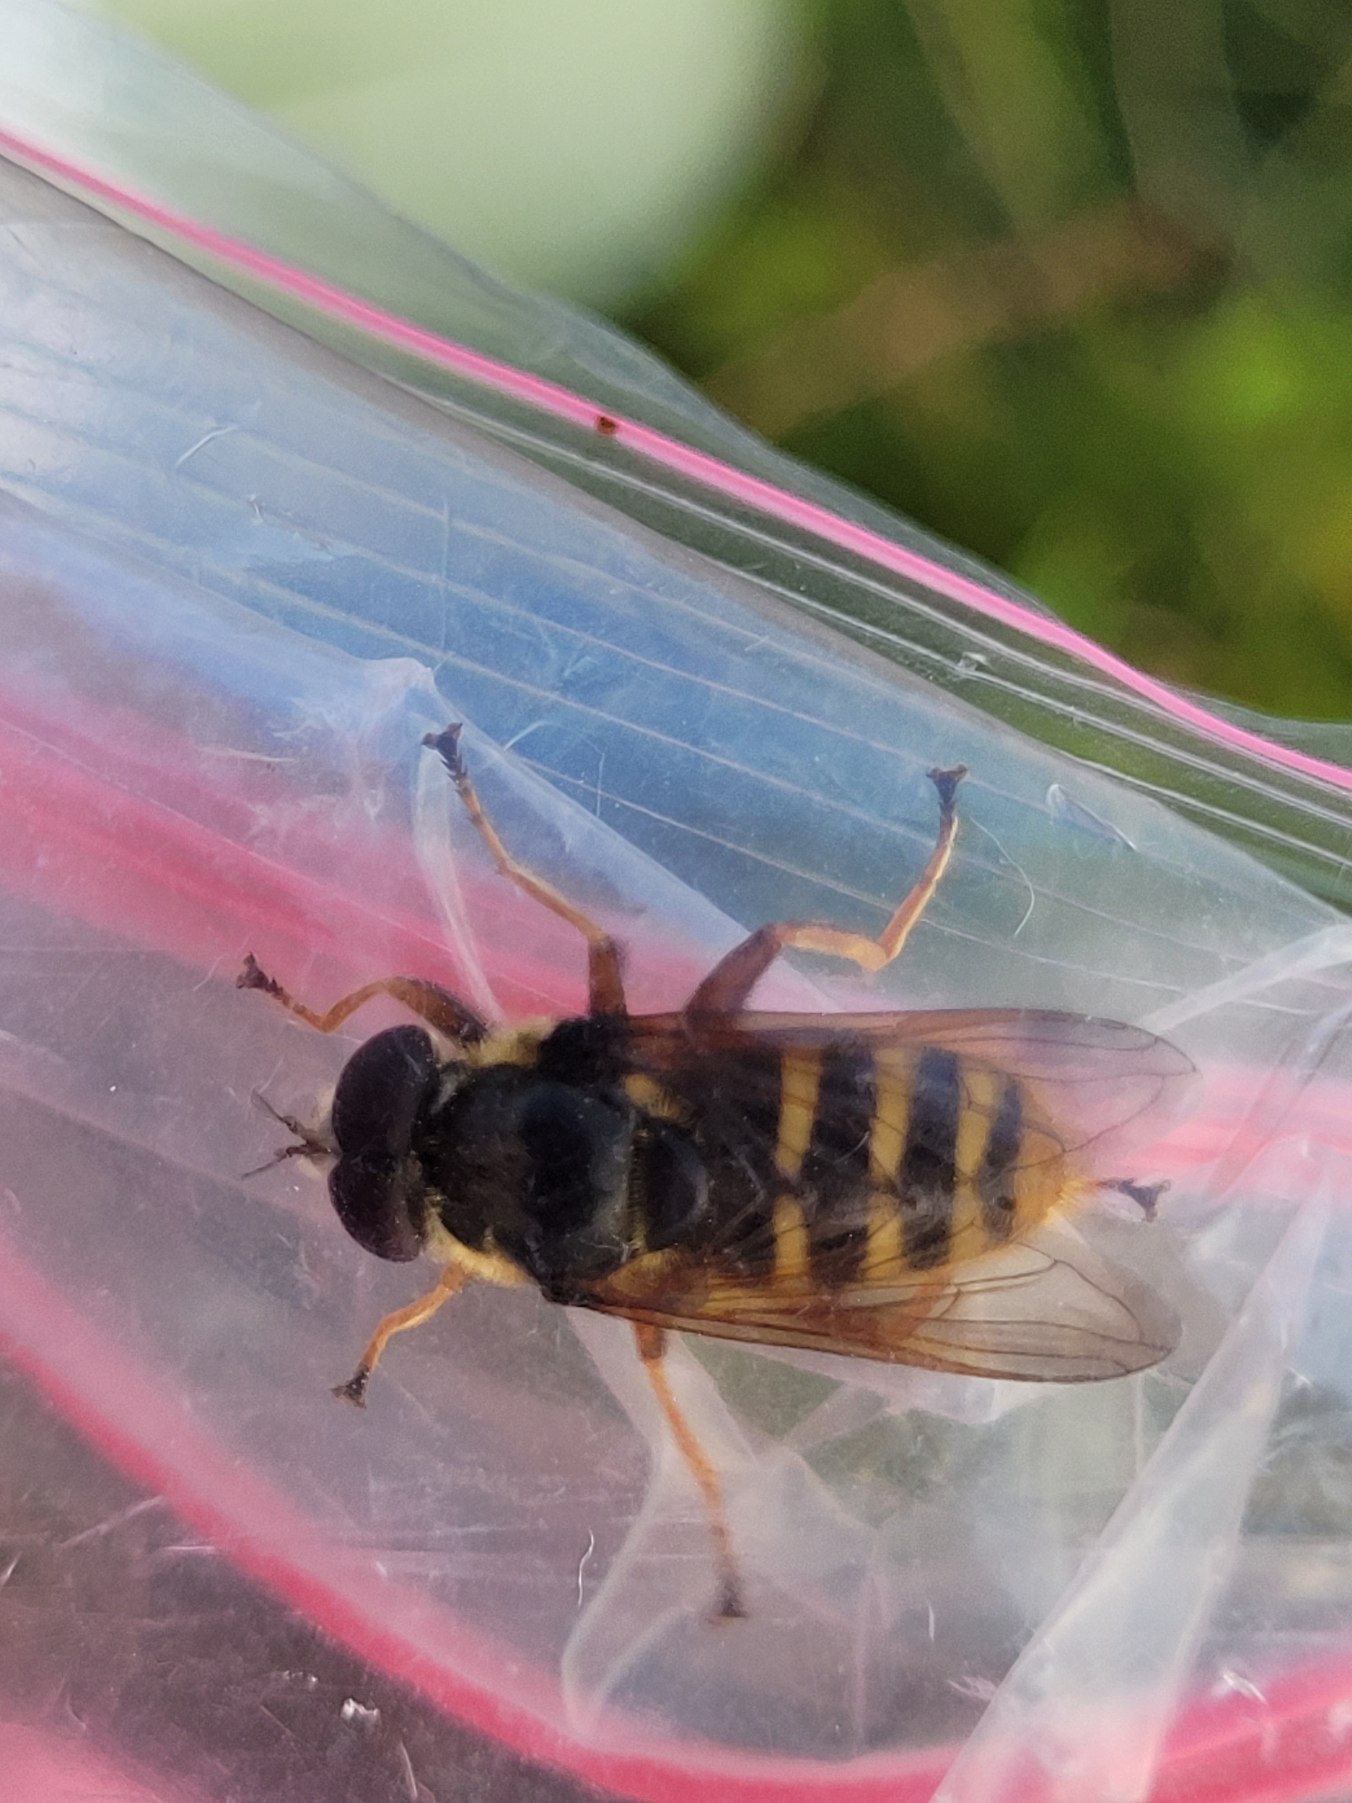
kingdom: Animalia
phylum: Arthropoda
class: Insecta
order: Diptera
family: Syrphidae
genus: Sericomyia
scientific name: Sericomyia silentis
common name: Tørve-silkesvirreflue
